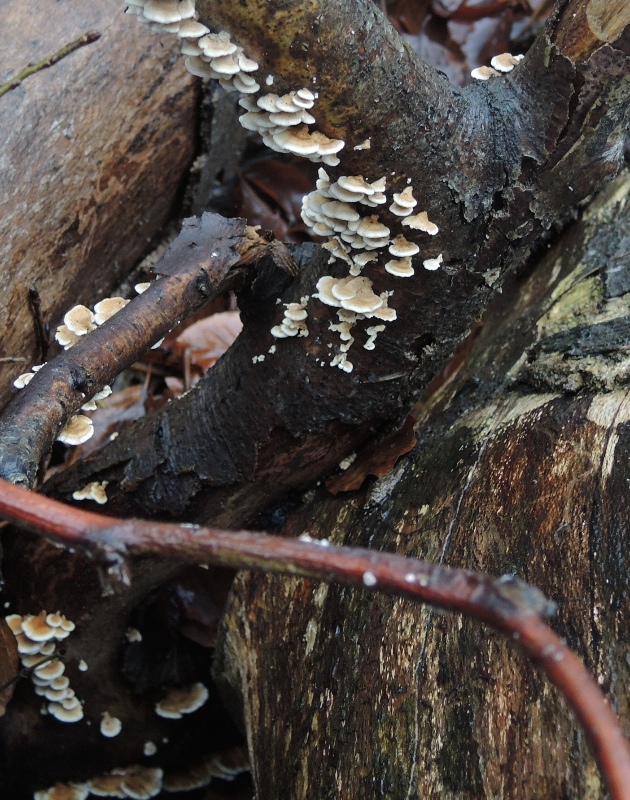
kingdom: Fungi
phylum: Basidiomycota
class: Agaricomycetes
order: Amylocorticiales
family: Amylocorticiaceae
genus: Plicaturopsis
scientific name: Plicaturopsis crispa
